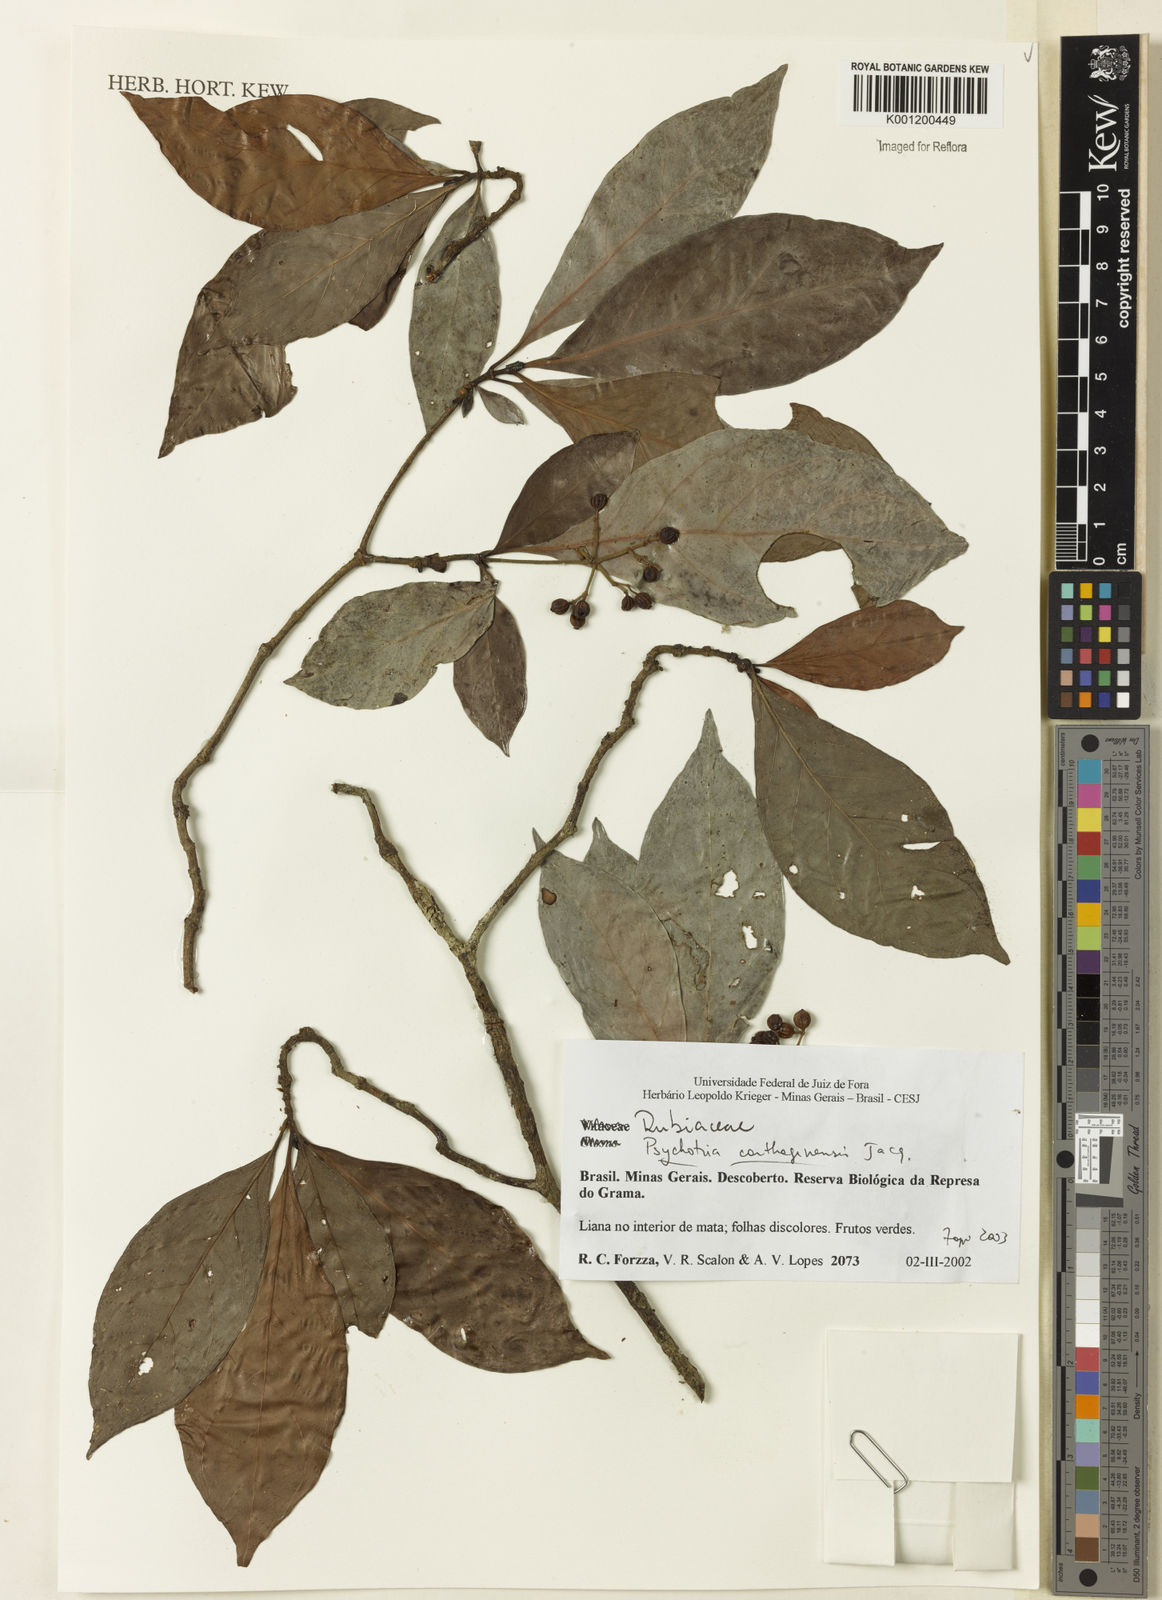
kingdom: Plantae
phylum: Tracheophyta
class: Magnoliopsida
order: Gentianales
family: Rubiaceae
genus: Psychotria
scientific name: Psychotria carthagenensis
